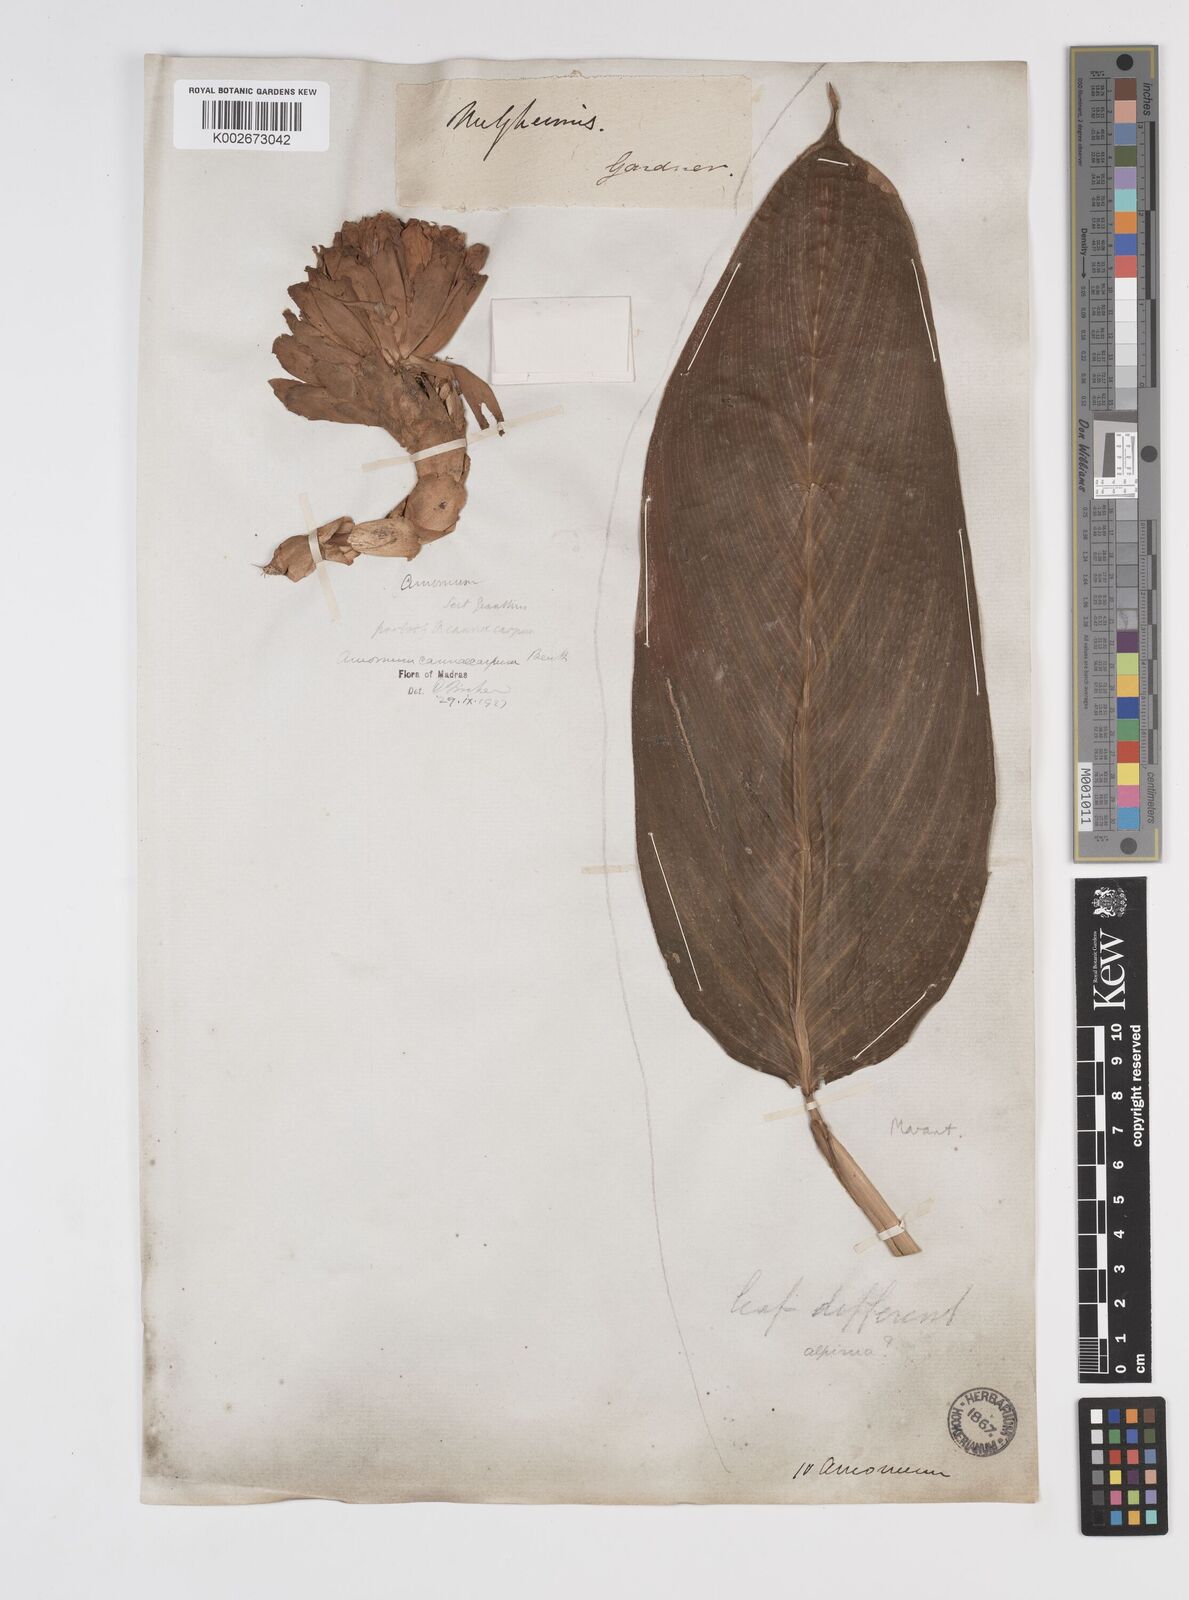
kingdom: Plantae
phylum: Tracheophyta
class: Liliopsida
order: Zingiberales
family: Zingiberaceae
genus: Meistera
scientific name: Meistera cannicarpa
